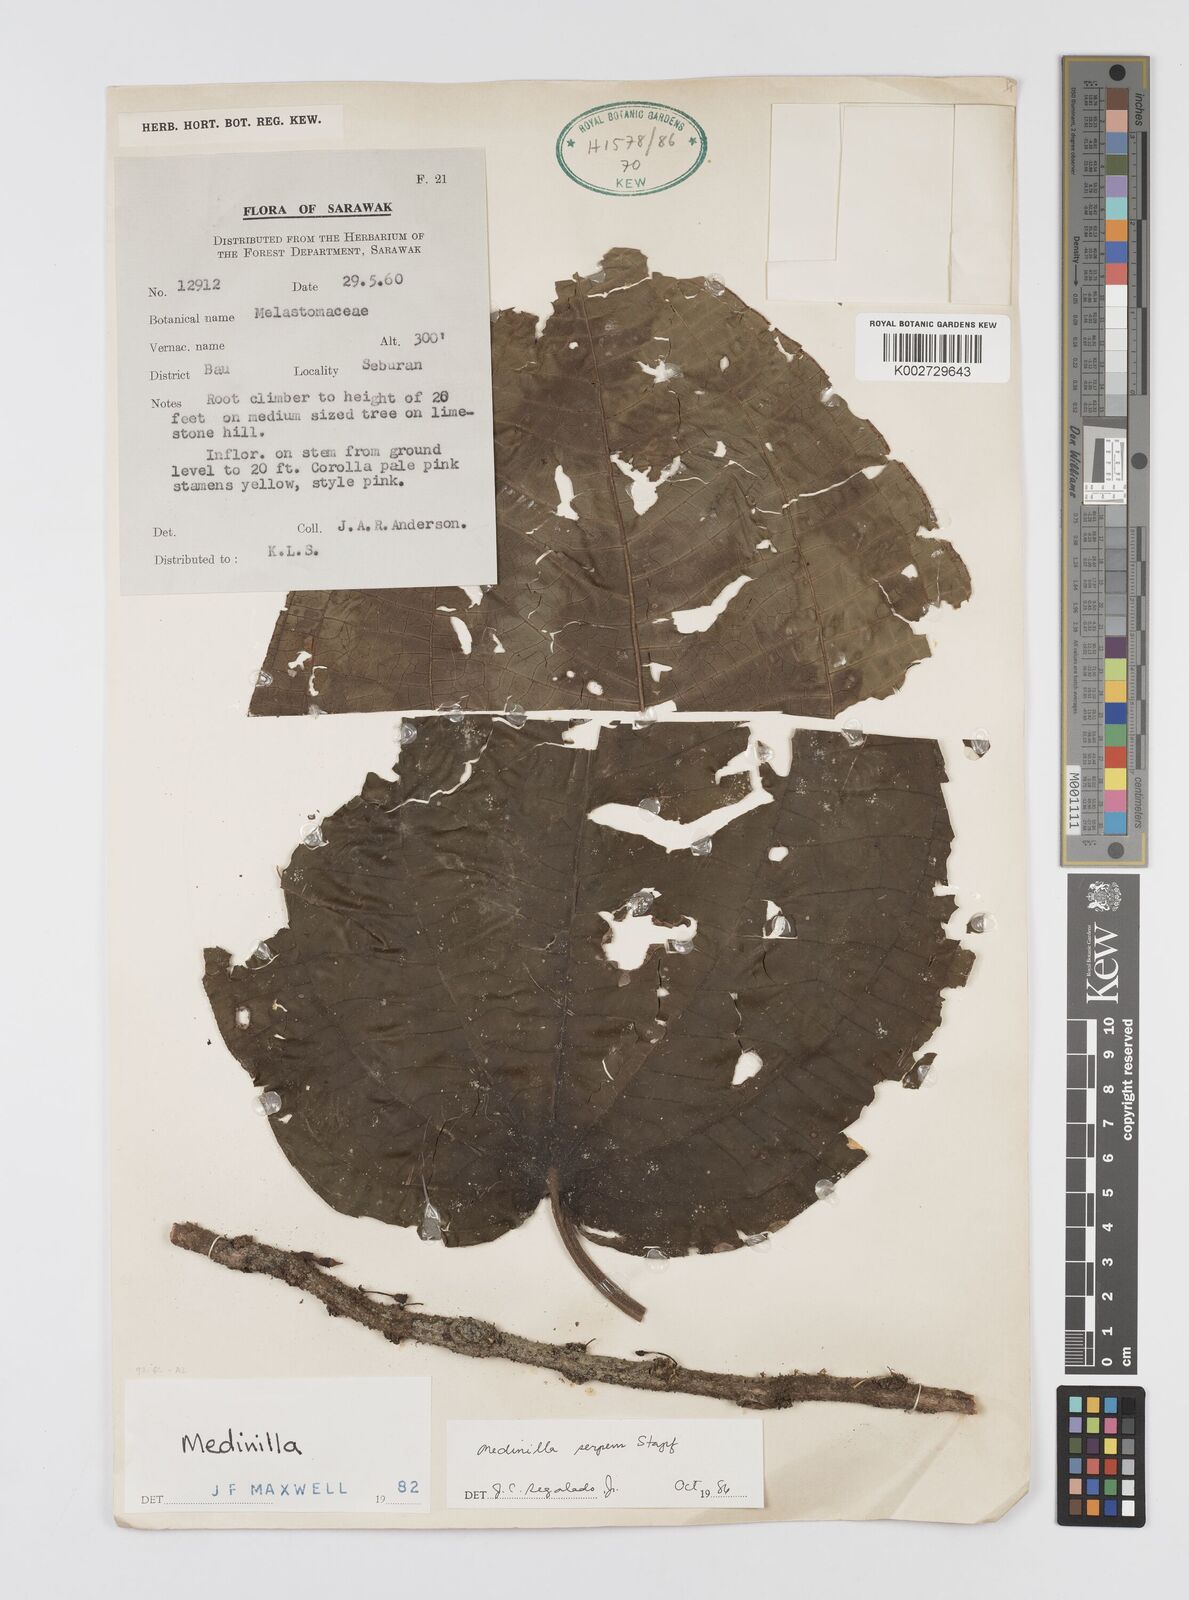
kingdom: Plantae
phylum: Tracheophyta
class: Magnoliopsida
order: Myrtales
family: Melastomataceae
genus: Heteroblemma
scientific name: Heteroblemma serpens
